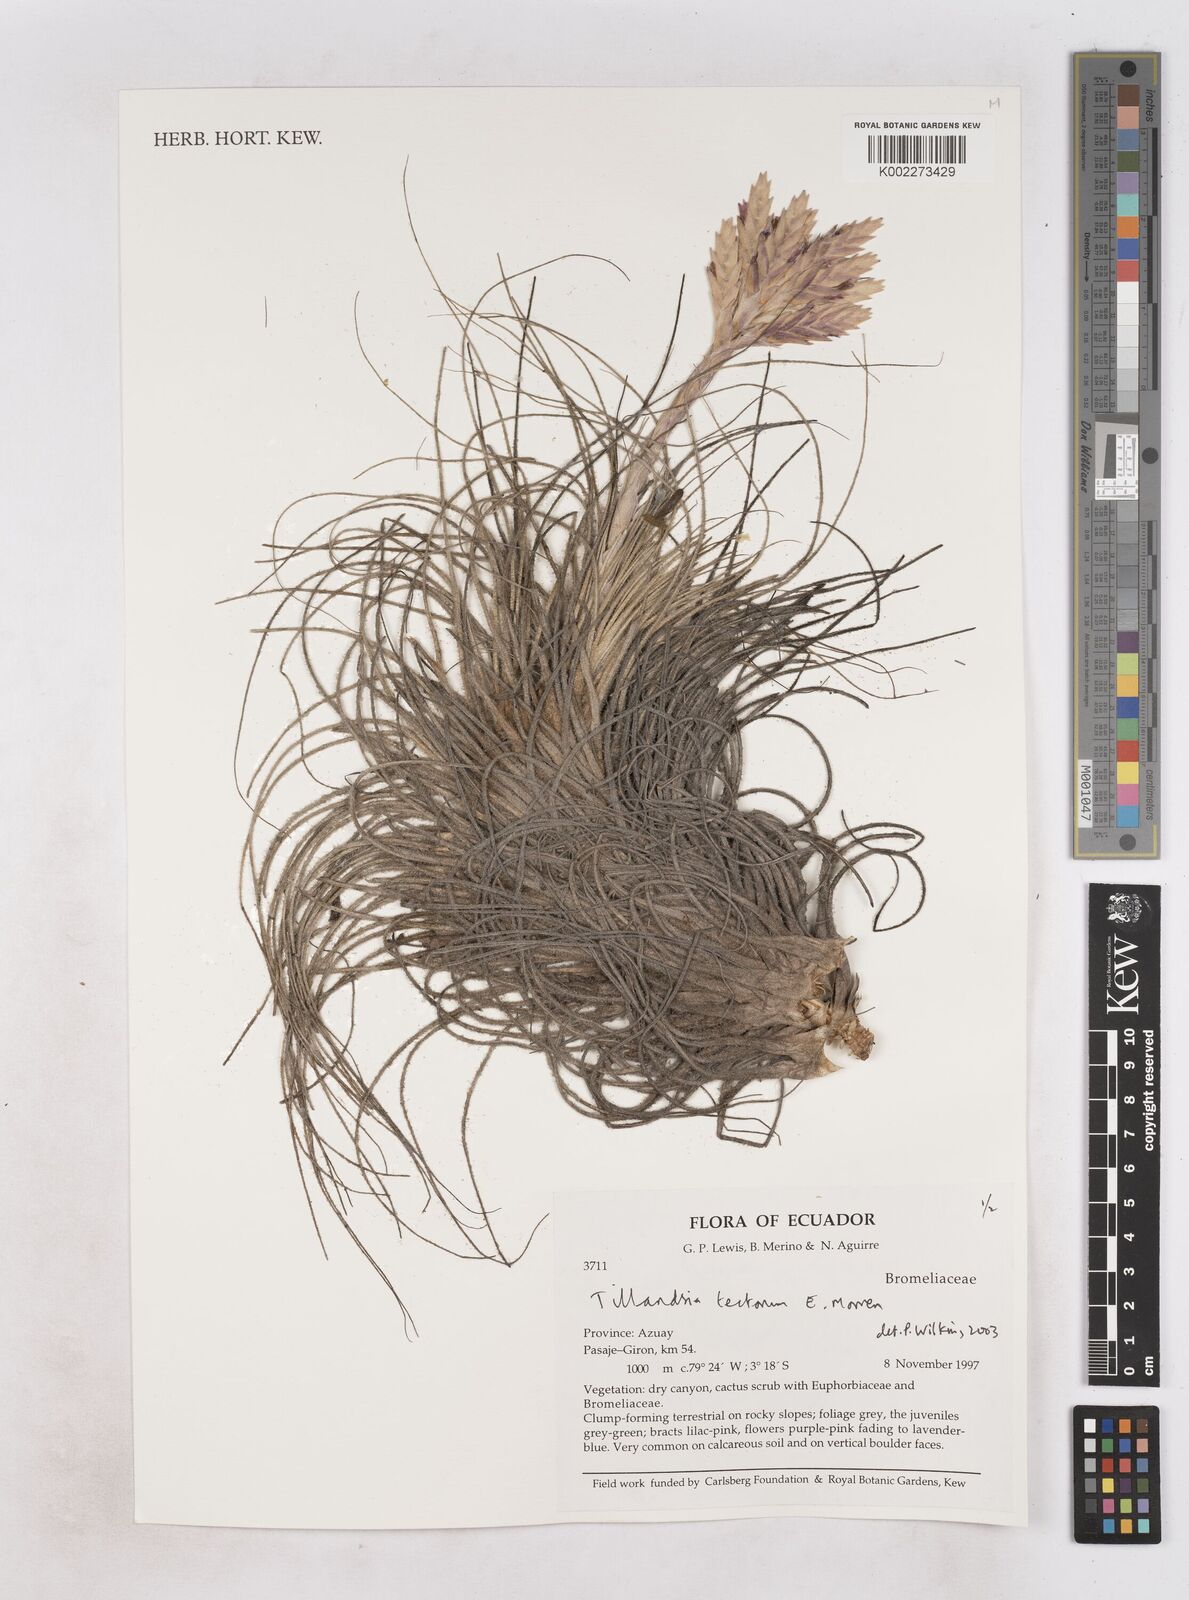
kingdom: Plantae
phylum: Tracheophyta
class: Liliopsida
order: Poales
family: Bromeliaceae
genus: Tillandsia
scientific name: Tillandsia tectorum
